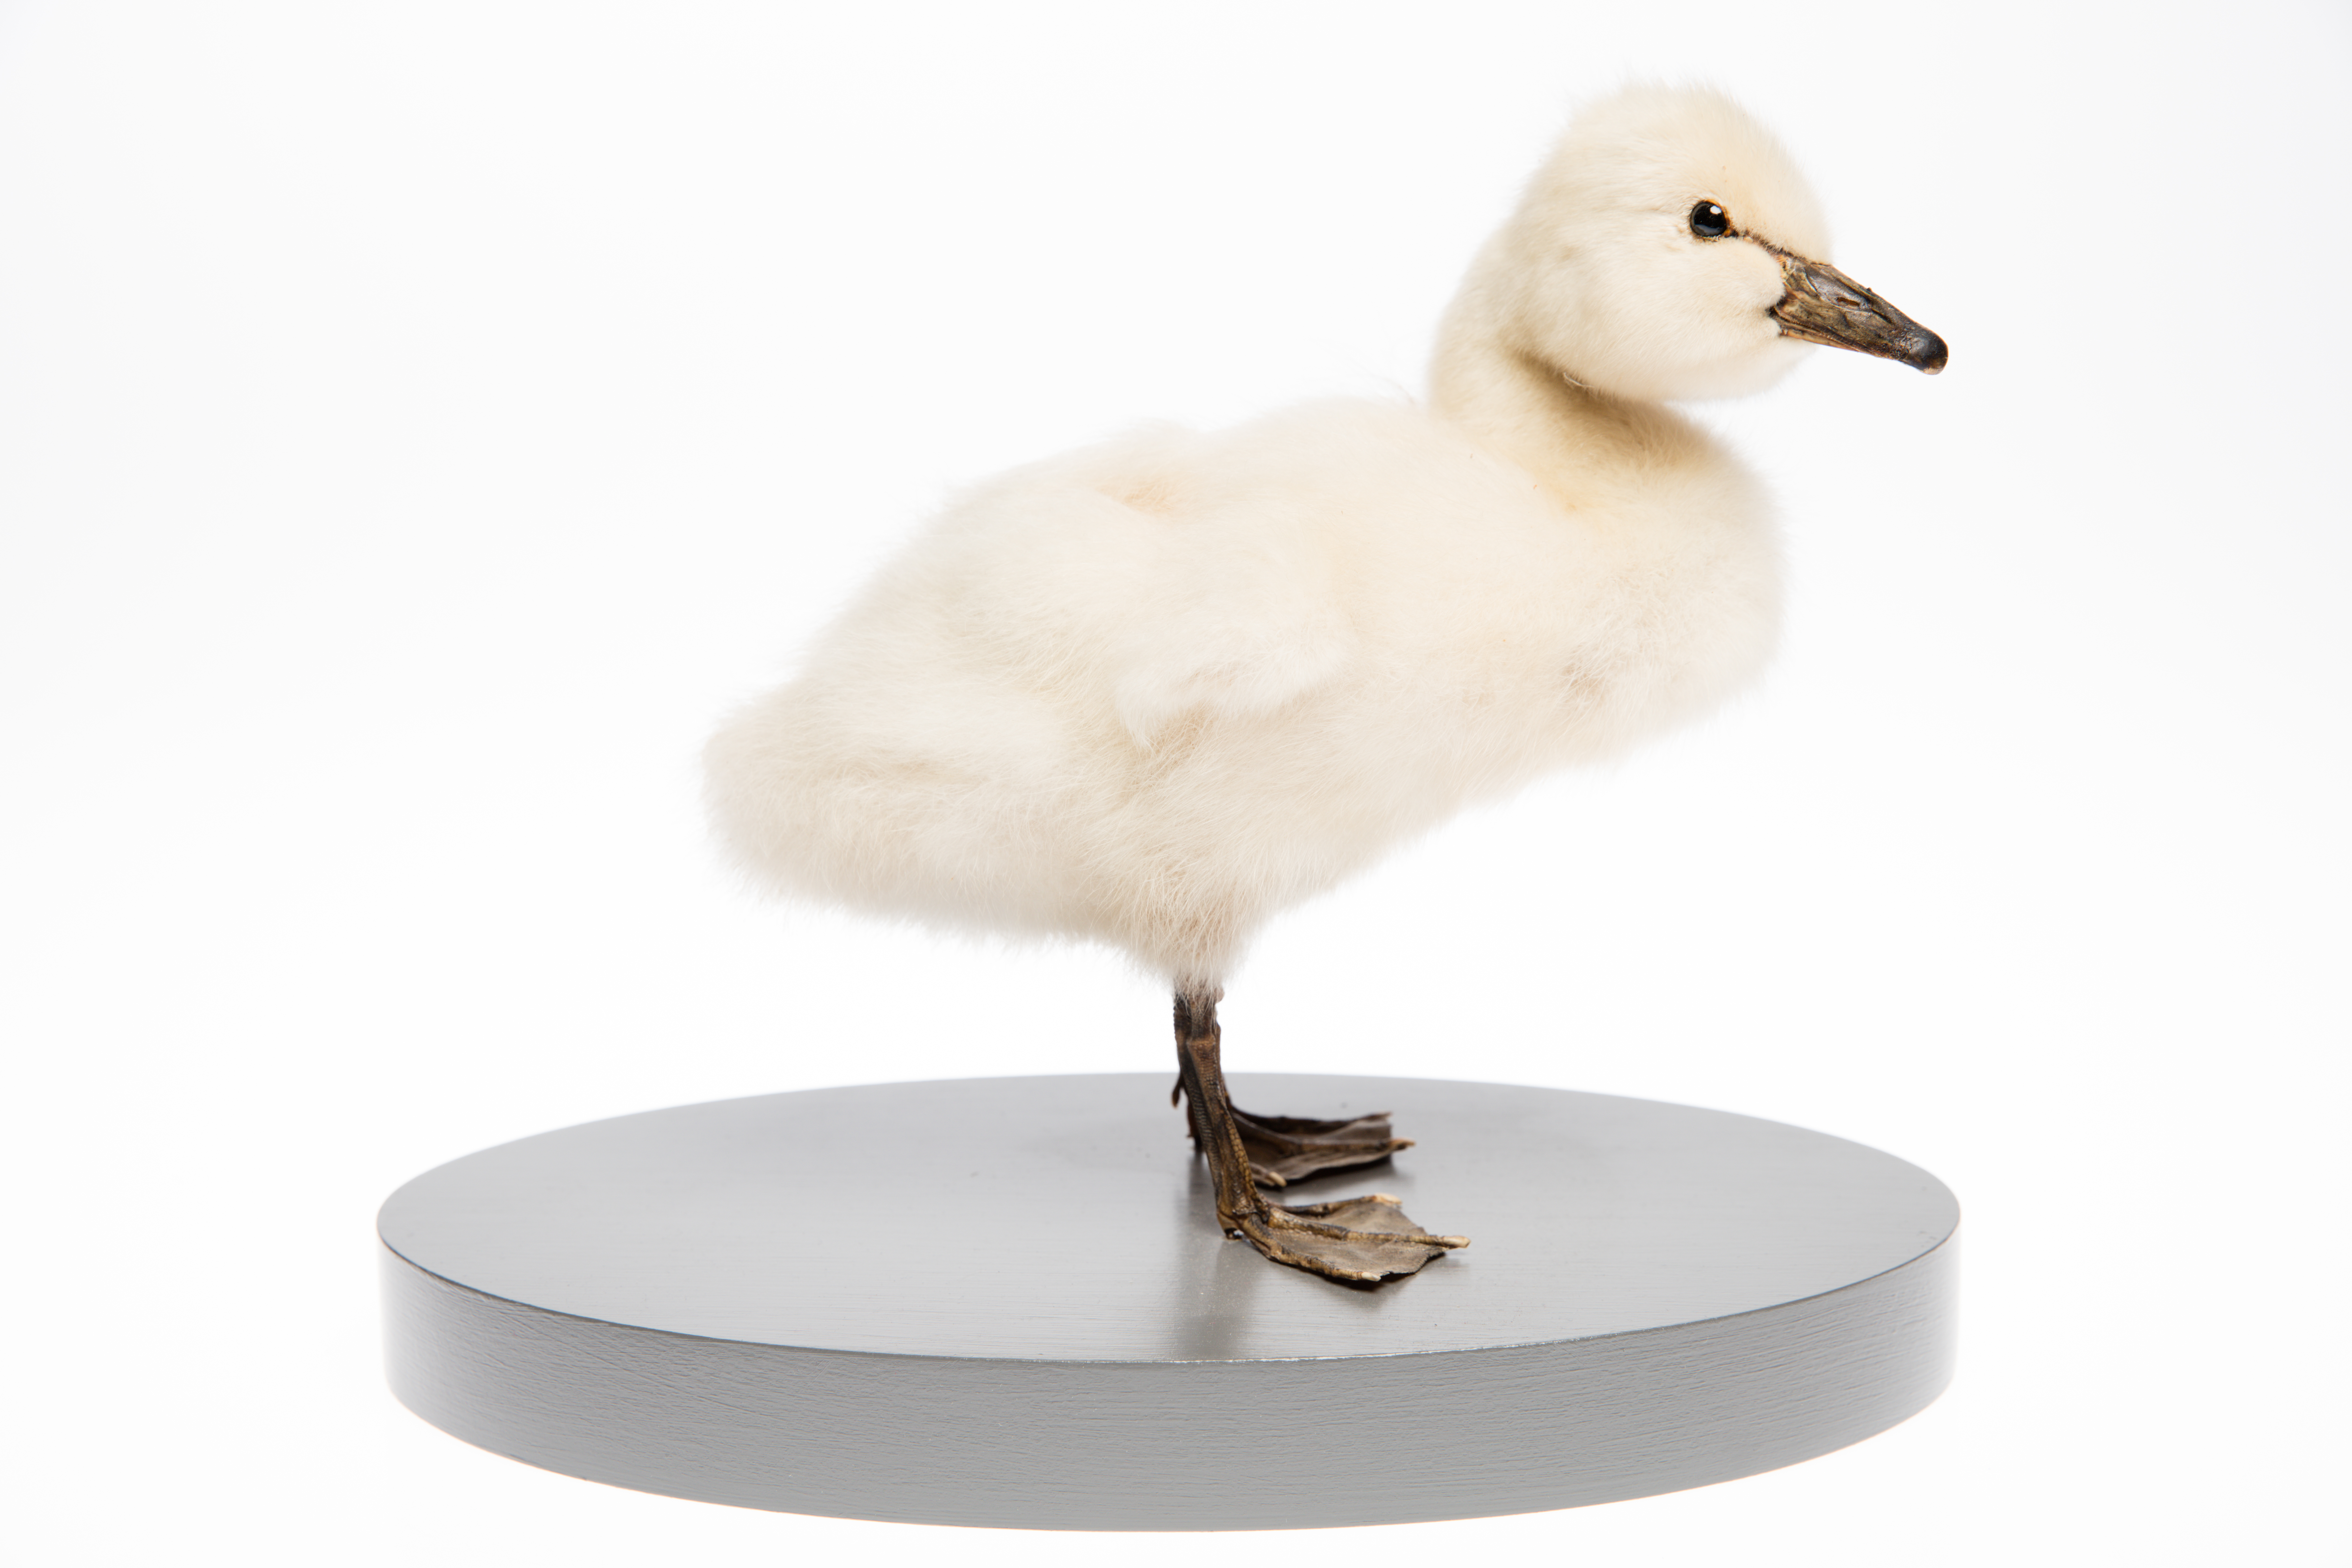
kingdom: Animalia
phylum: Chordata
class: Aves
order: Anseriformes
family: Anatidae
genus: Cygnus
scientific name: Cygnus atratus
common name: Black swan
